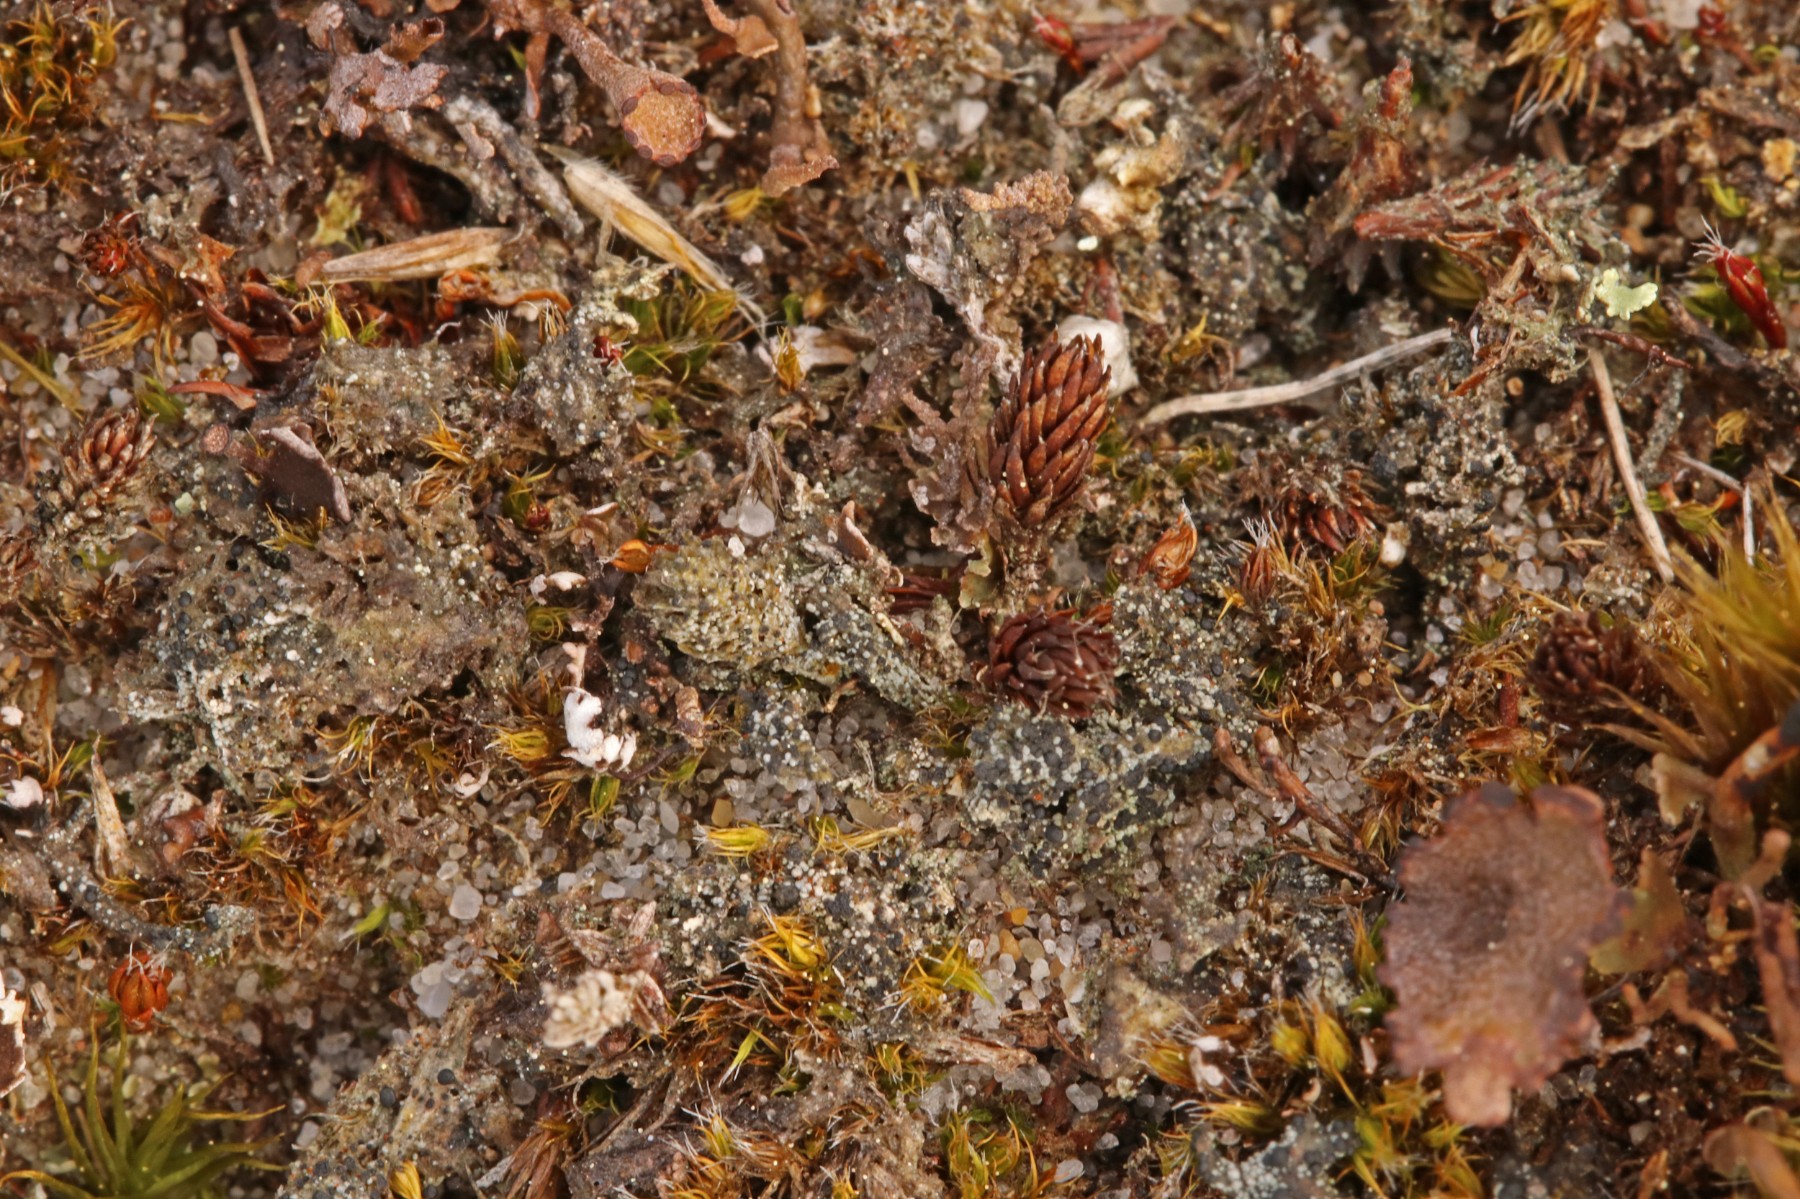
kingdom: Fungi
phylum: Ascomycota
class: Lecanoromycetes
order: Lecanorales
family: Byssolomataceae
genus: Micarea
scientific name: Micarea lignaria
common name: tørve-knaplav
